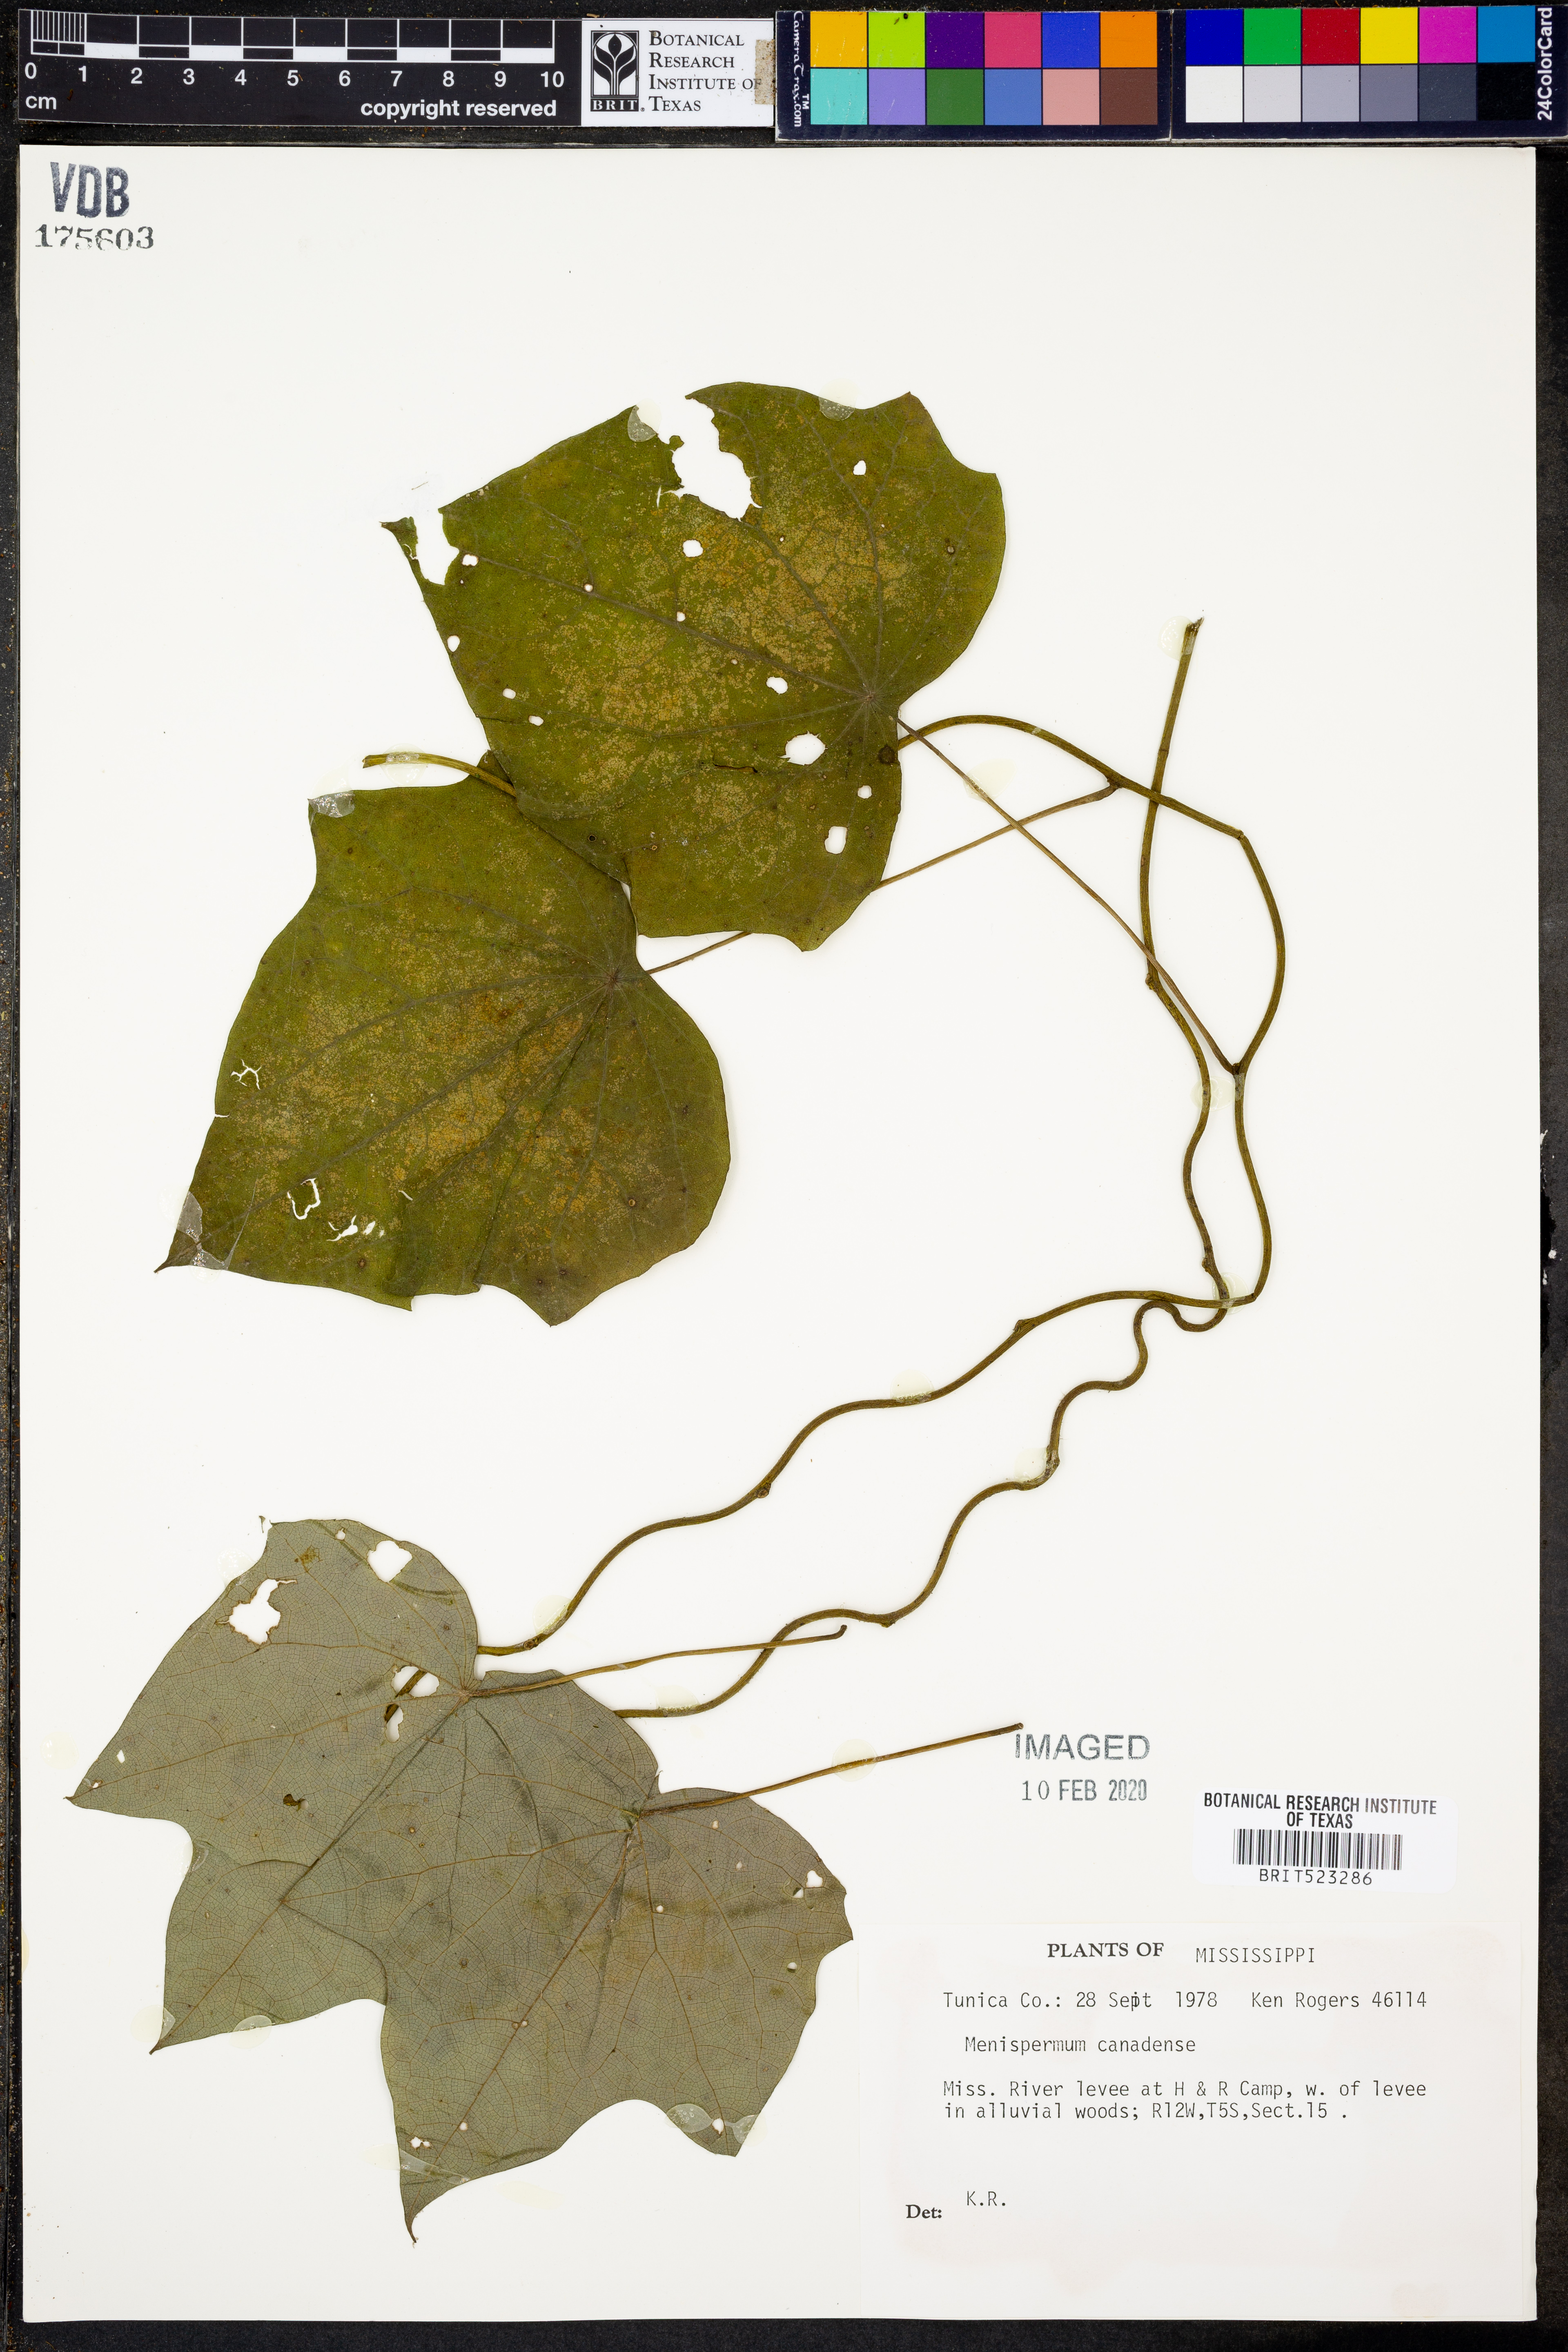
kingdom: Plantae
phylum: Tracheophyta
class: Magnoliopsida
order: Ranunculales
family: Menispermaceae
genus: Menispermum
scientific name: Menispermum canadense
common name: Moonseed
